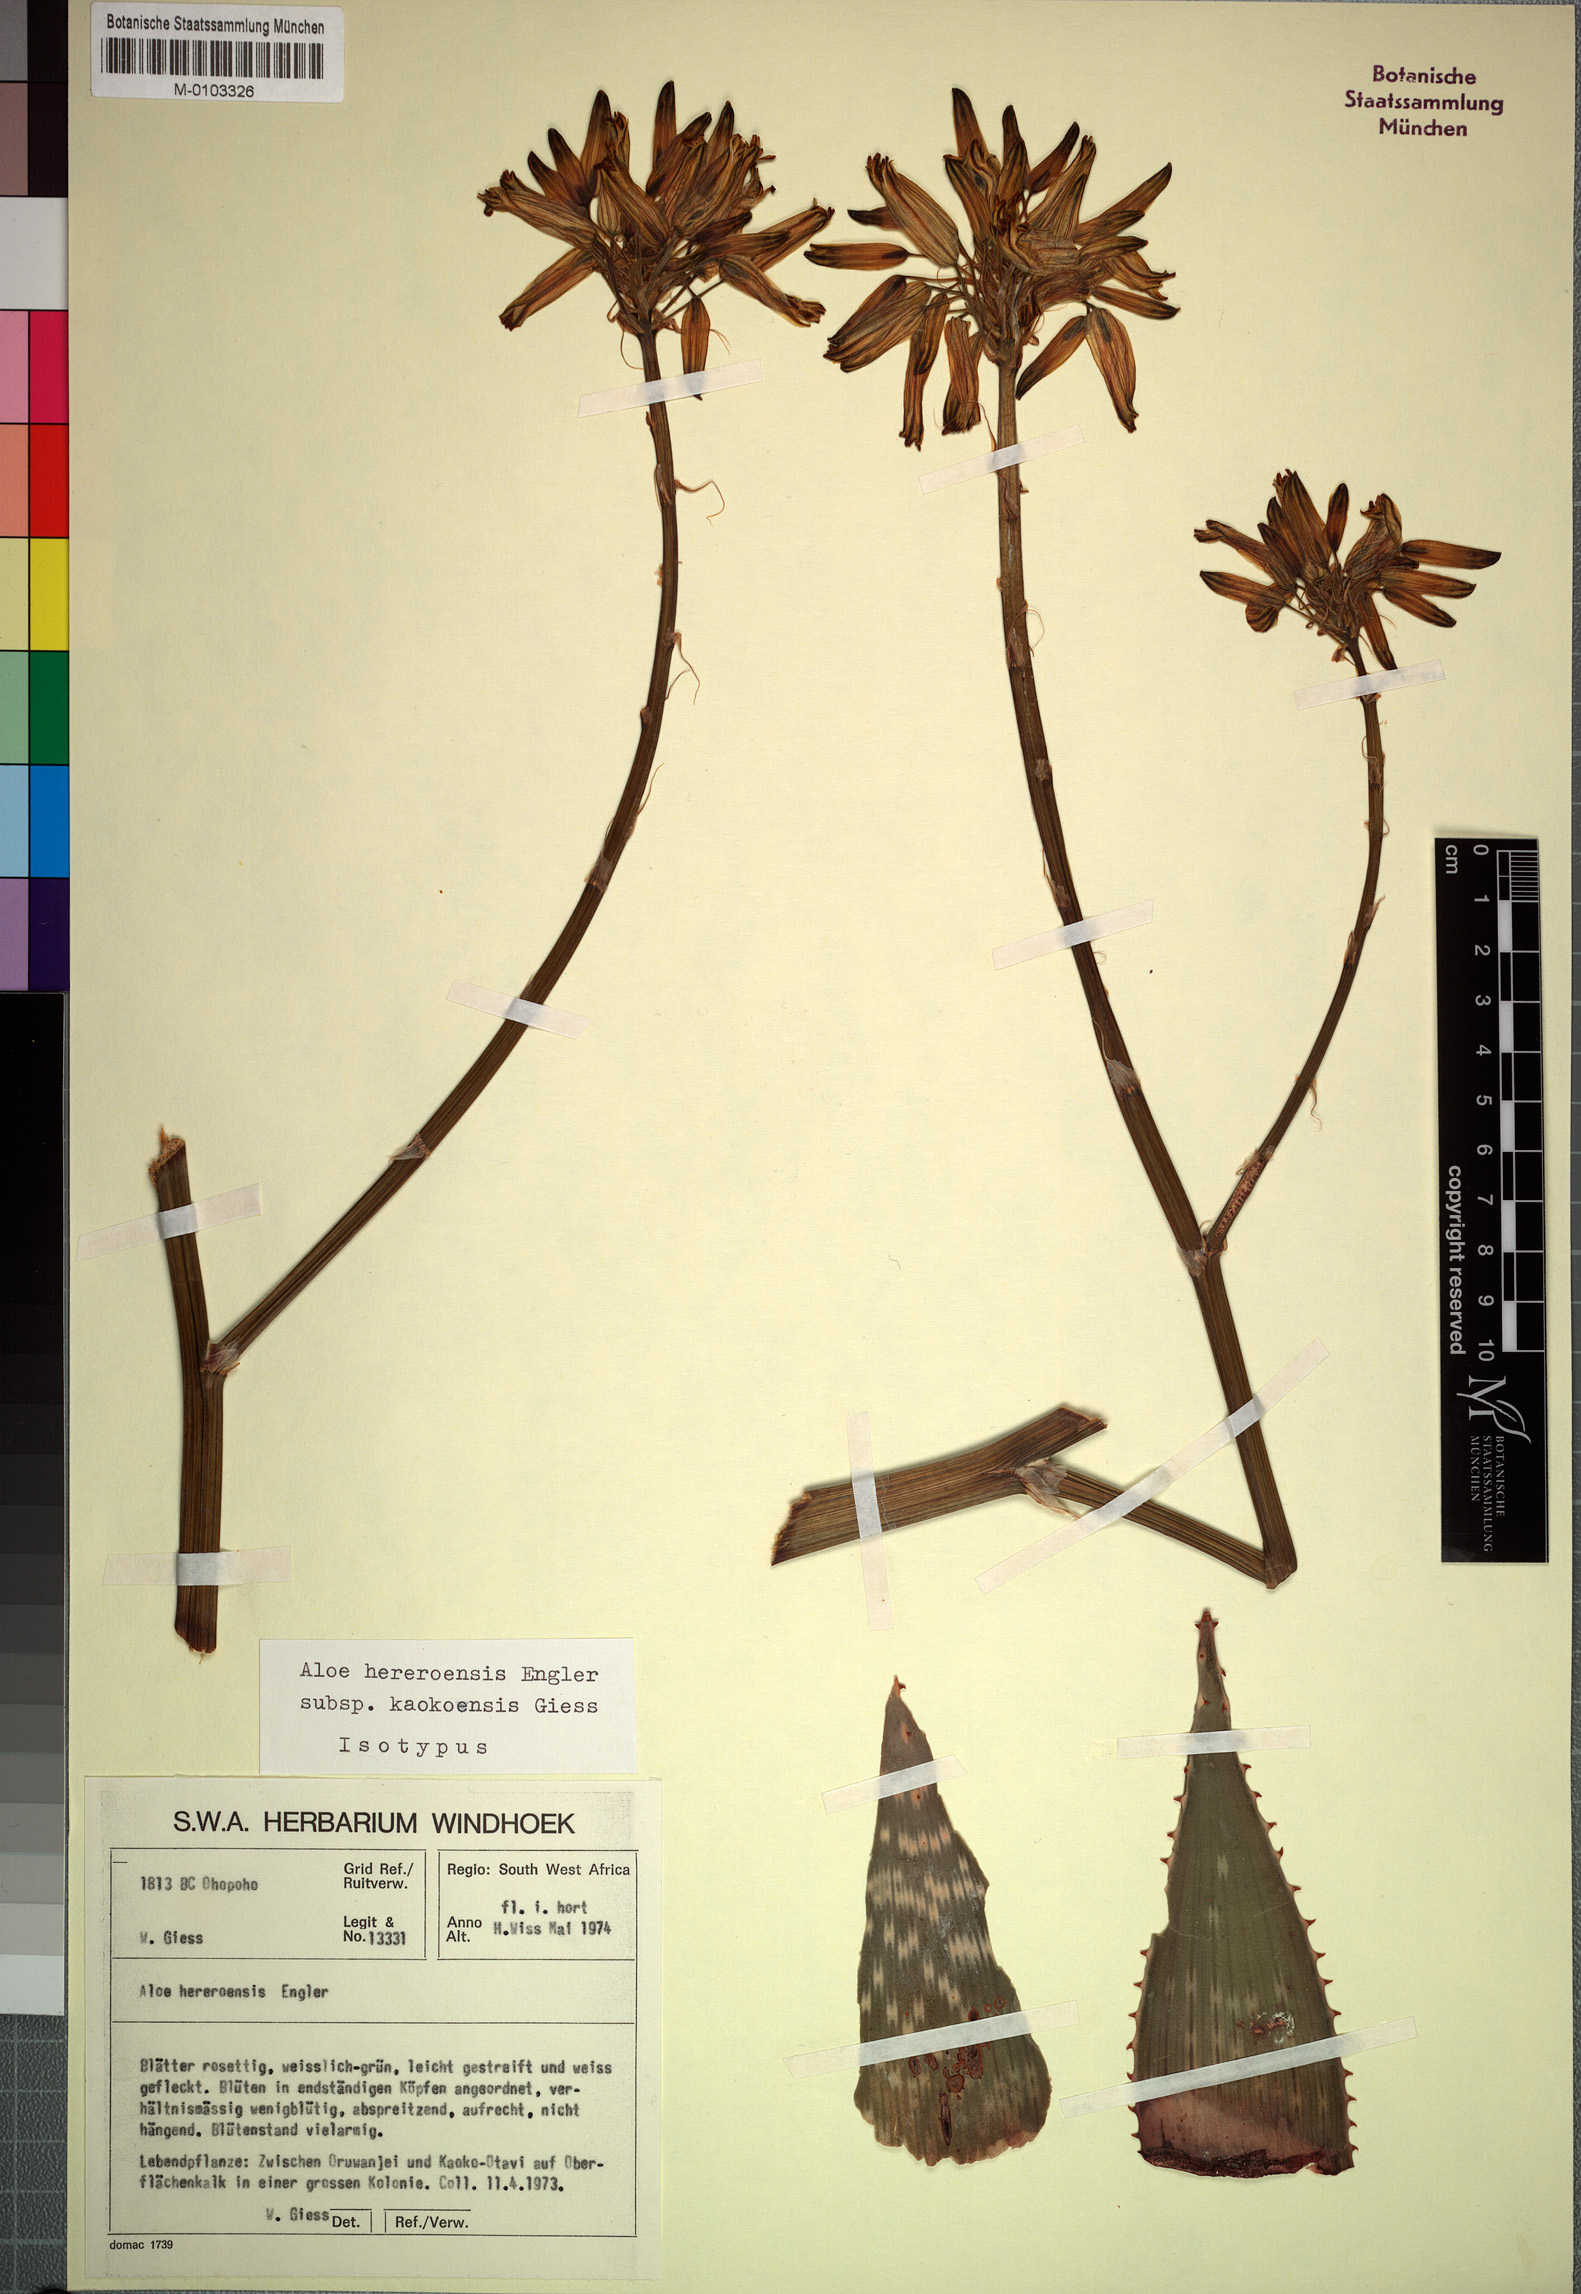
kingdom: Plantae
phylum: Tracheophyta
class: Liliopsida
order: Asparagales
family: Asphodelaceae
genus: Aloe
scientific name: Aloe hereroensis
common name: Herero aloe
